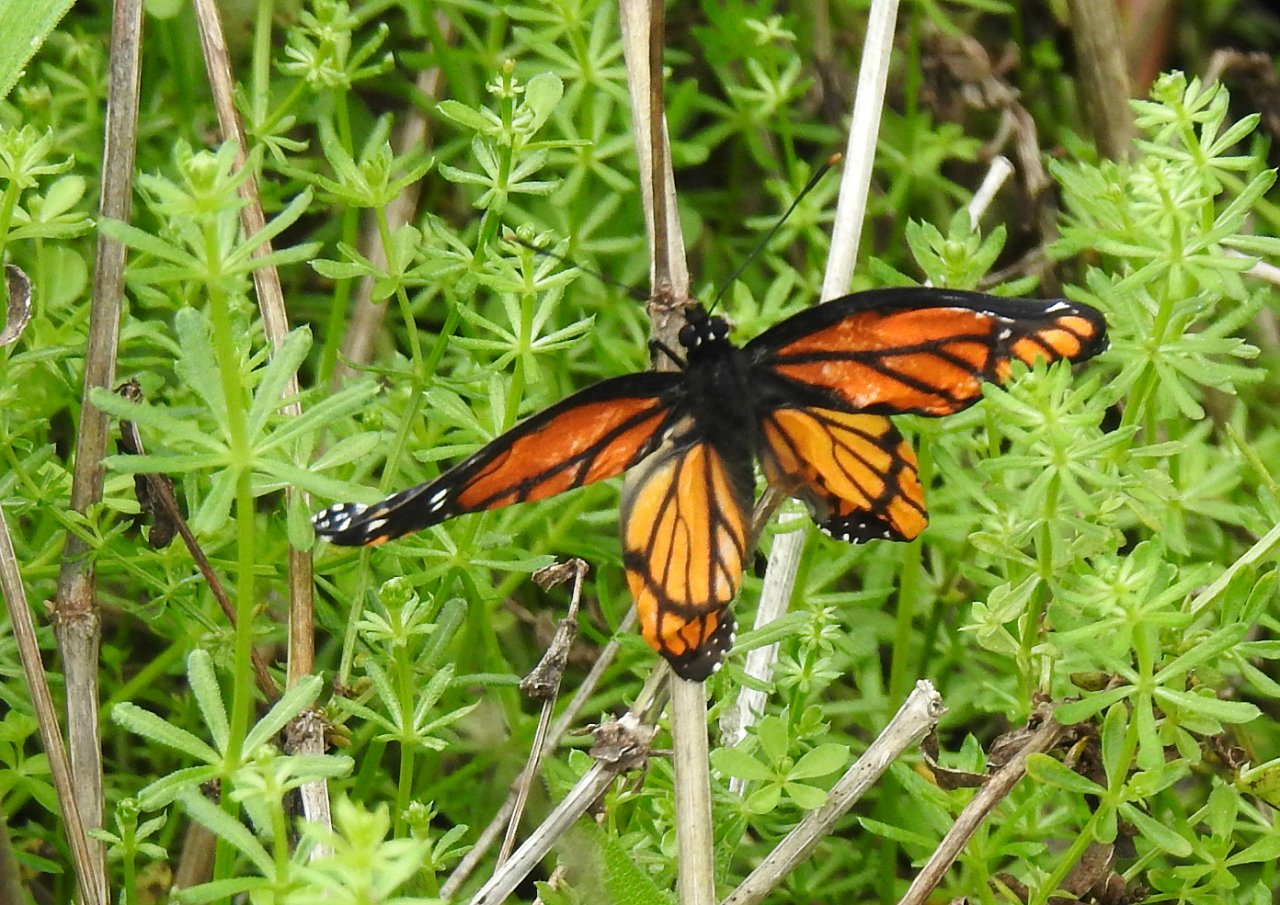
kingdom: Animalia
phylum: Arthropoda
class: Insecta
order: Lepidoptera
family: Nymphalidae
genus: Limenitis
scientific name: Limenitis archippus
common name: Viceroy
